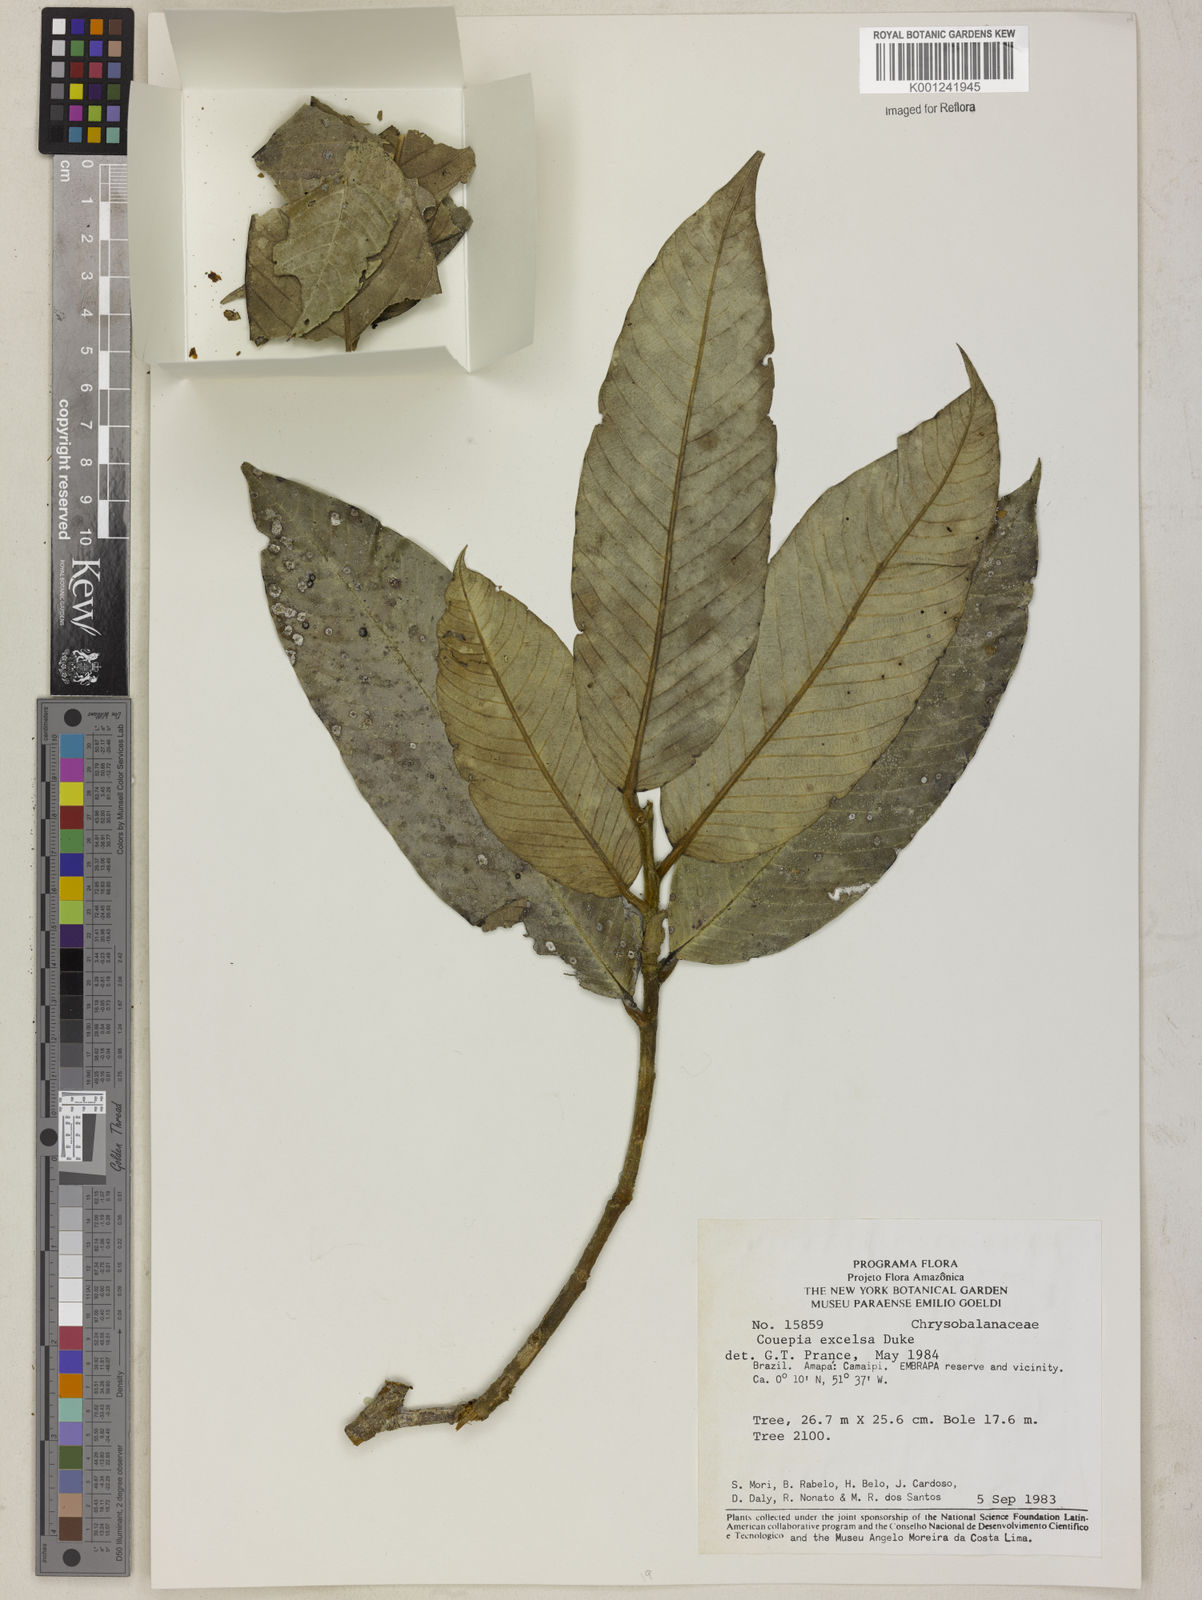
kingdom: Plantae
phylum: Tracheophyta
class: Magnoliopsida
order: Malpighiales
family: Chrysobalanaceae
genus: Couepia
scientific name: Couepia excelsa
